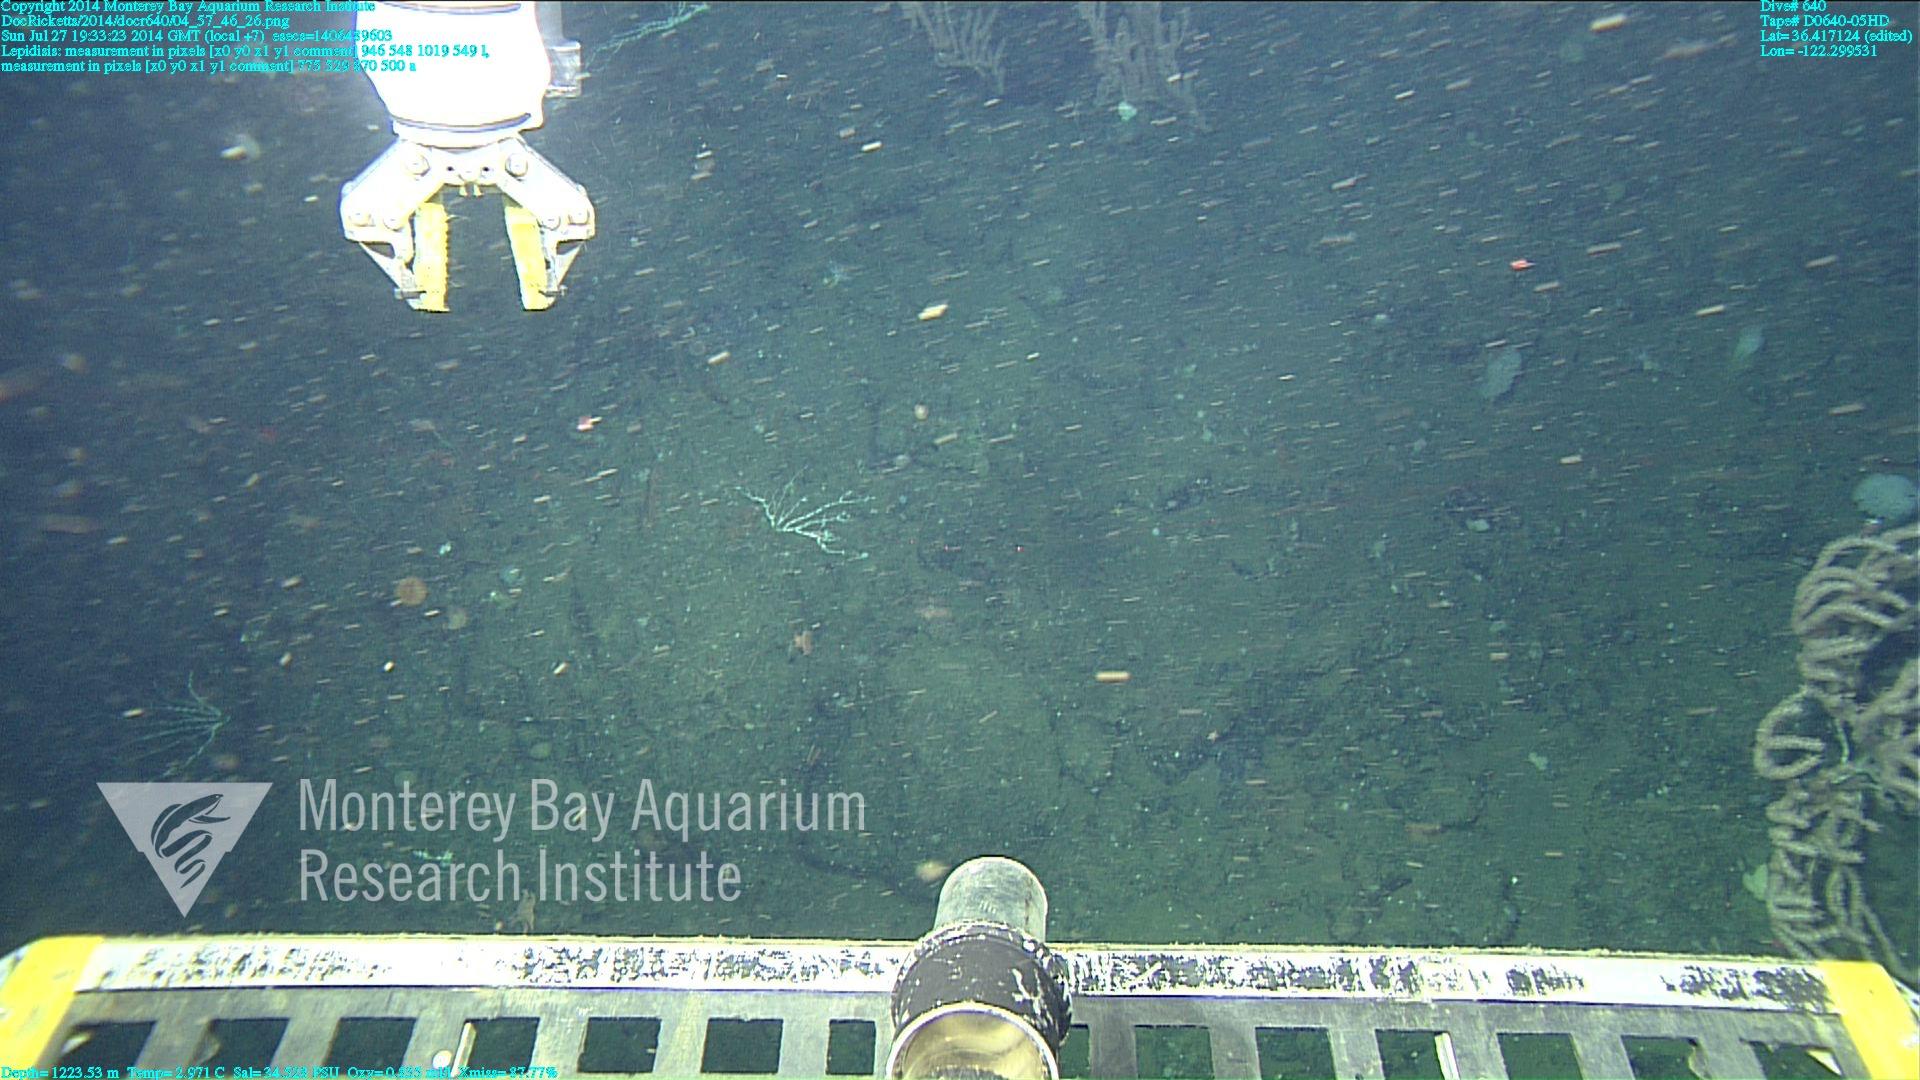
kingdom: Animalia
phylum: Cnidaria
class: Anthozoa
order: Scleralcyonacea
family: Keratoisididae
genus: Lepidisis
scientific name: Lepidisis
